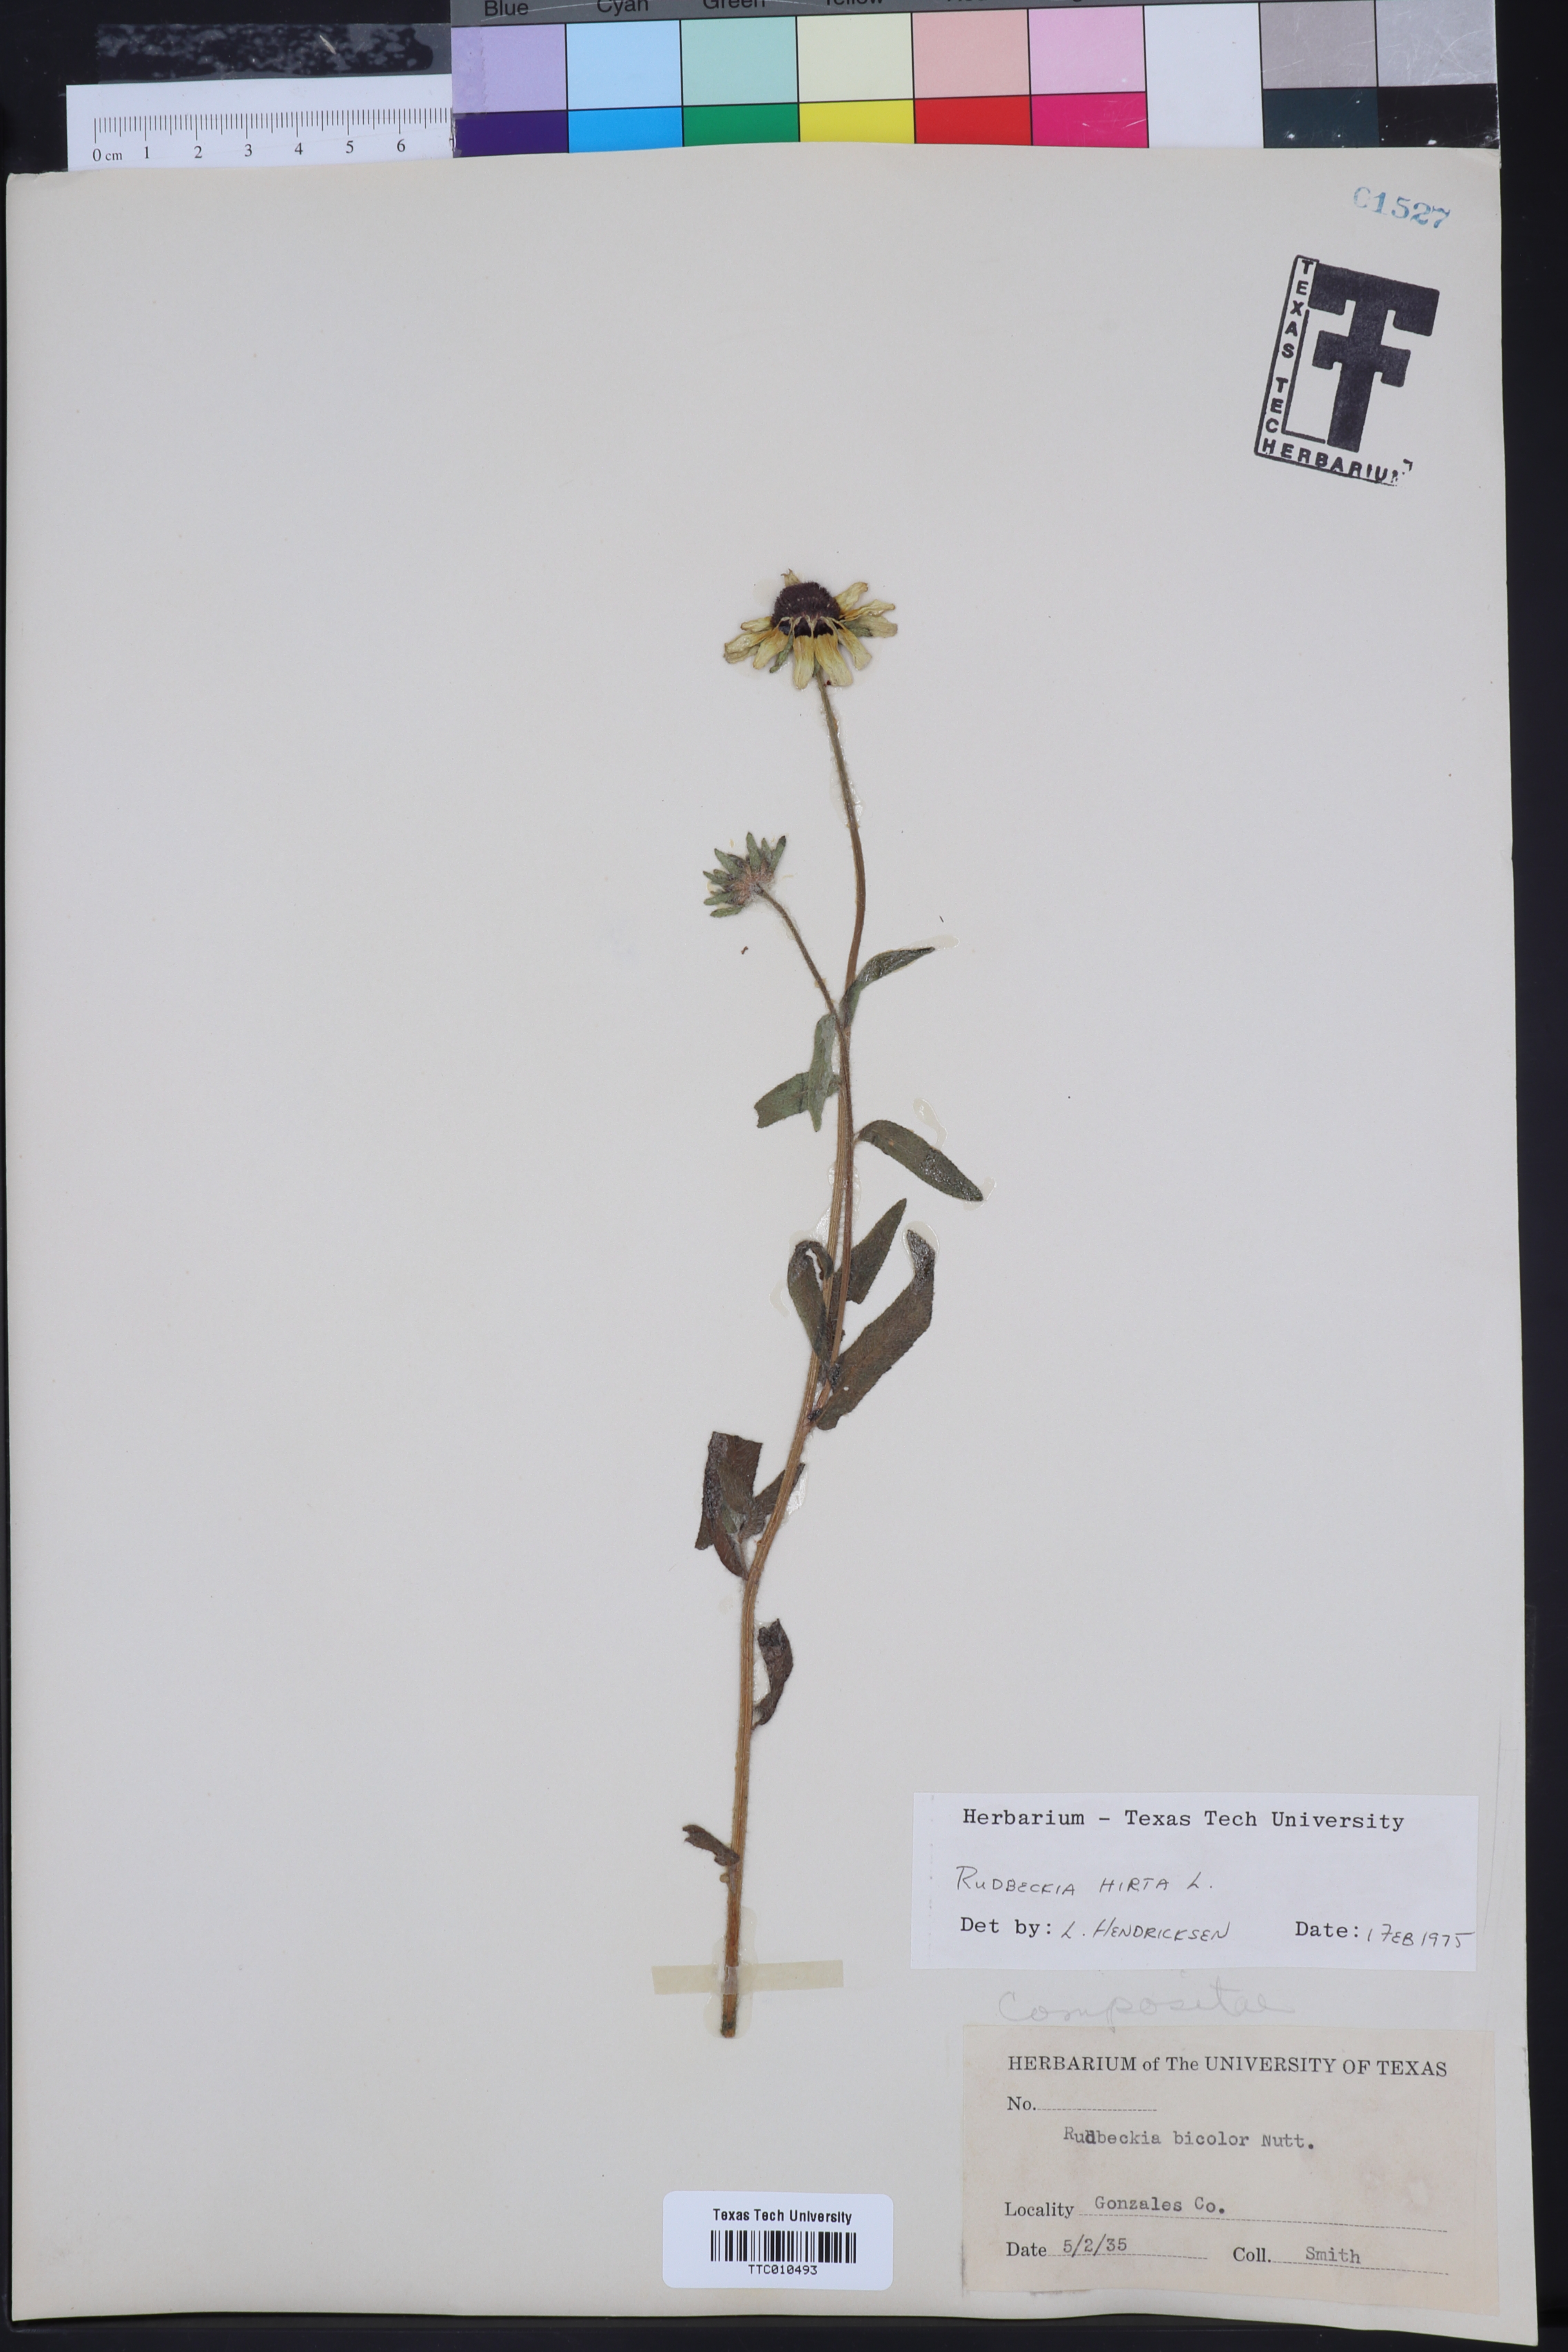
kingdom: Plantae
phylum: Tracheophyta
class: Magnoliopsida
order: Asterales
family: Asteraceae
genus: Rudbeckia
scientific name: Rudbeckia hirta
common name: Black-eyed-susan
